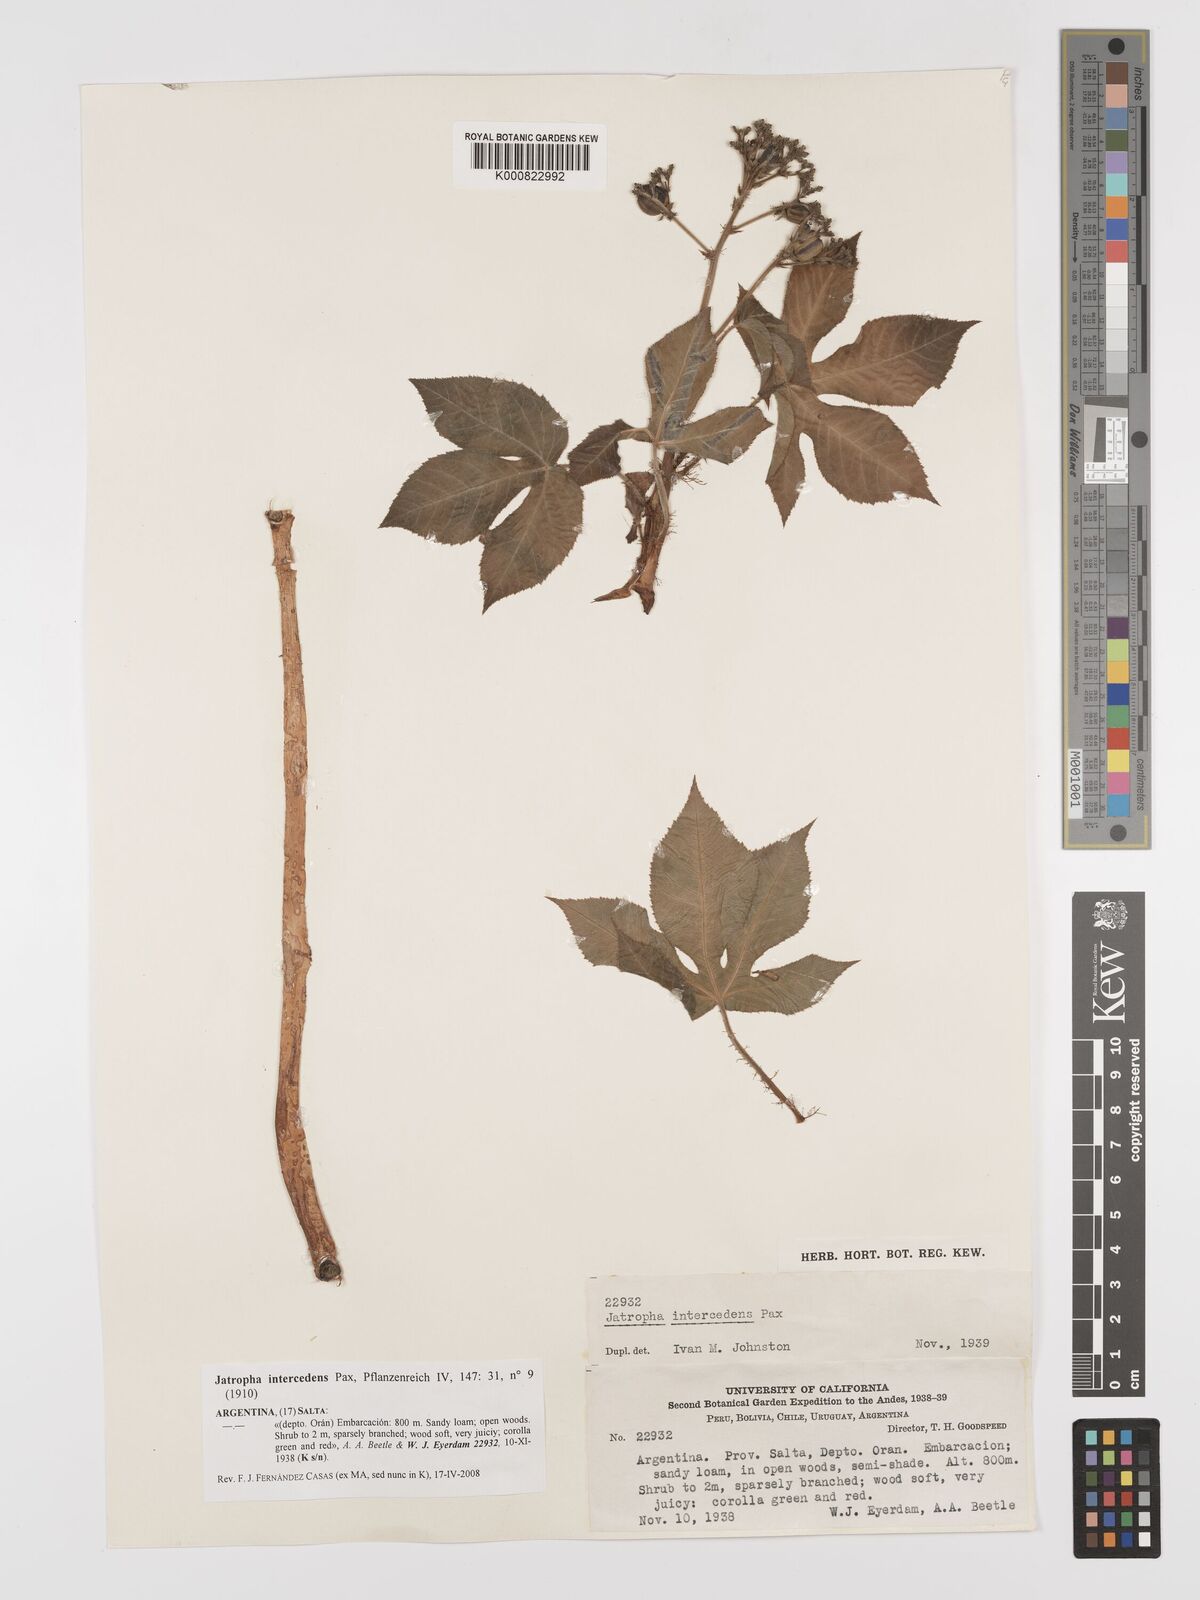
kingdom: Plantae
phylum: Tracheophyta
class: Magnoliopsida
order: Malpighiales
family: Euphorbiaceae
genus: Jatropha
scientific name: Jatropha excisa
